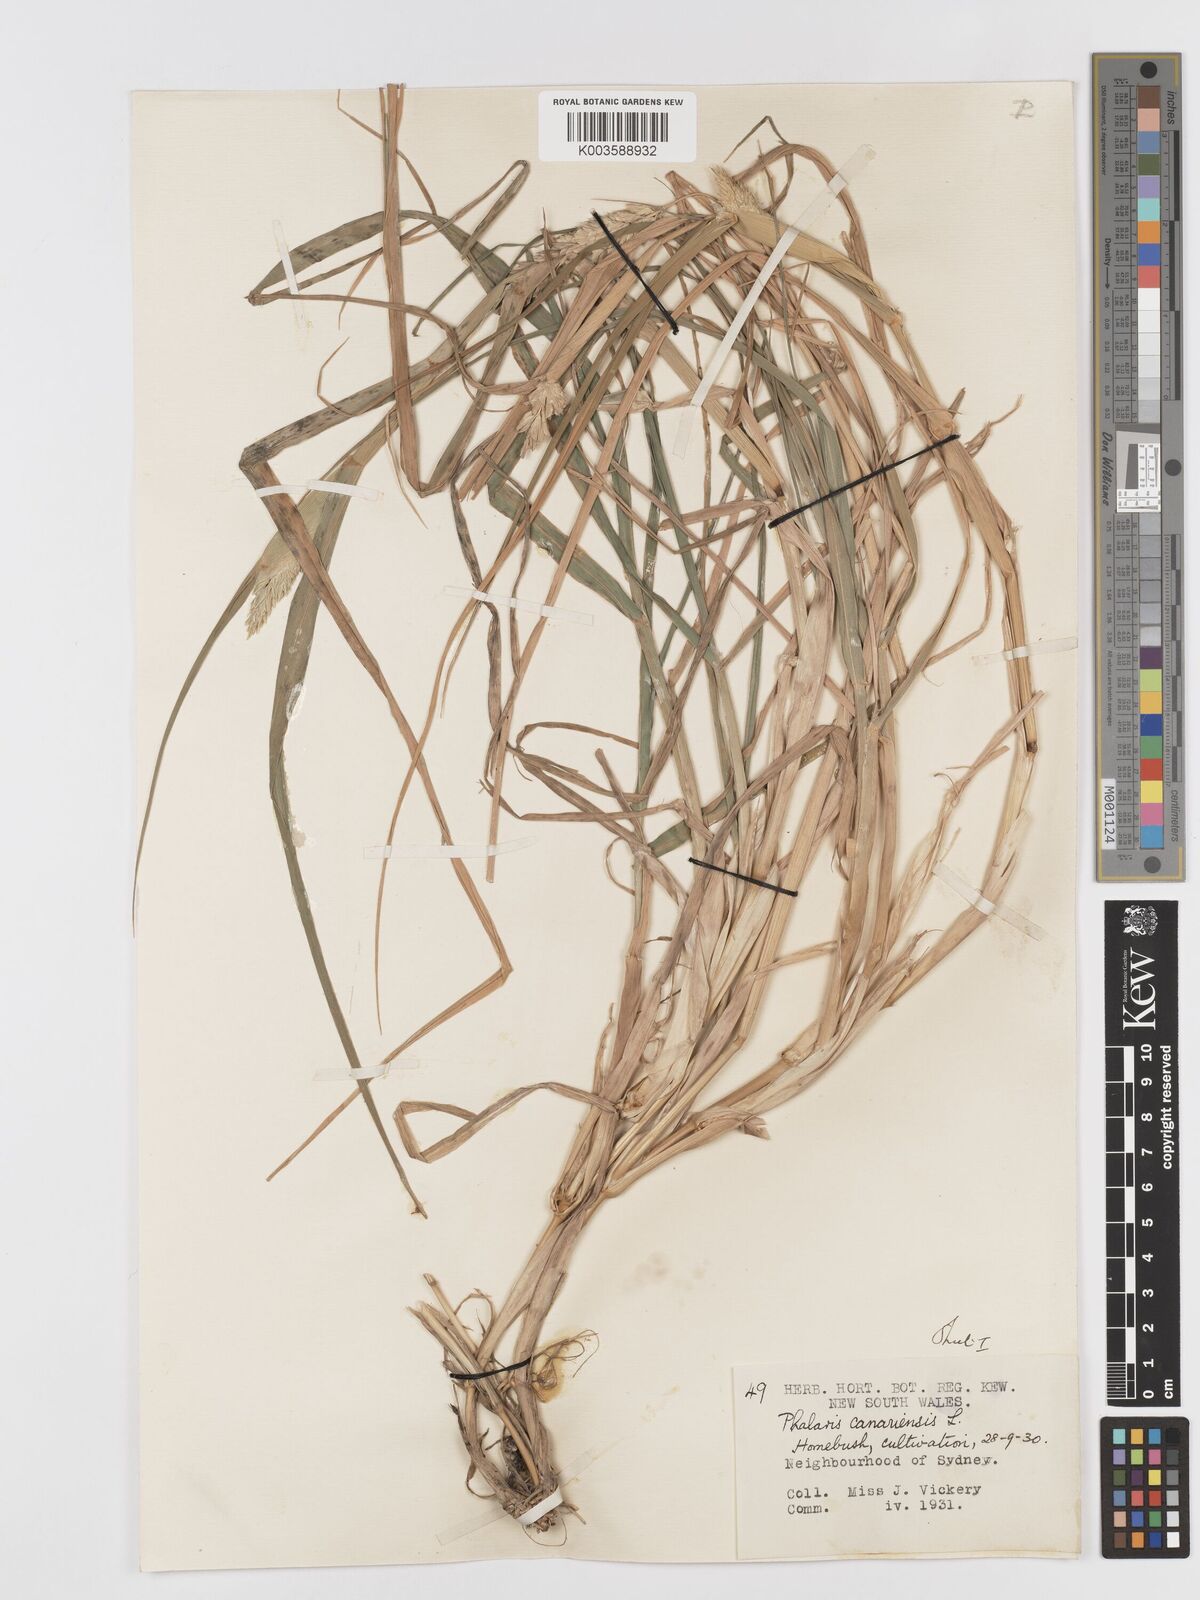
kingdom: Plantae
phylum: Tracheophyta
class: Liliopsida
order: Poales
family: Poaceae
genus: Phalaris
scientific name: Phalaris canariensis
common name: Annual canarygrass
